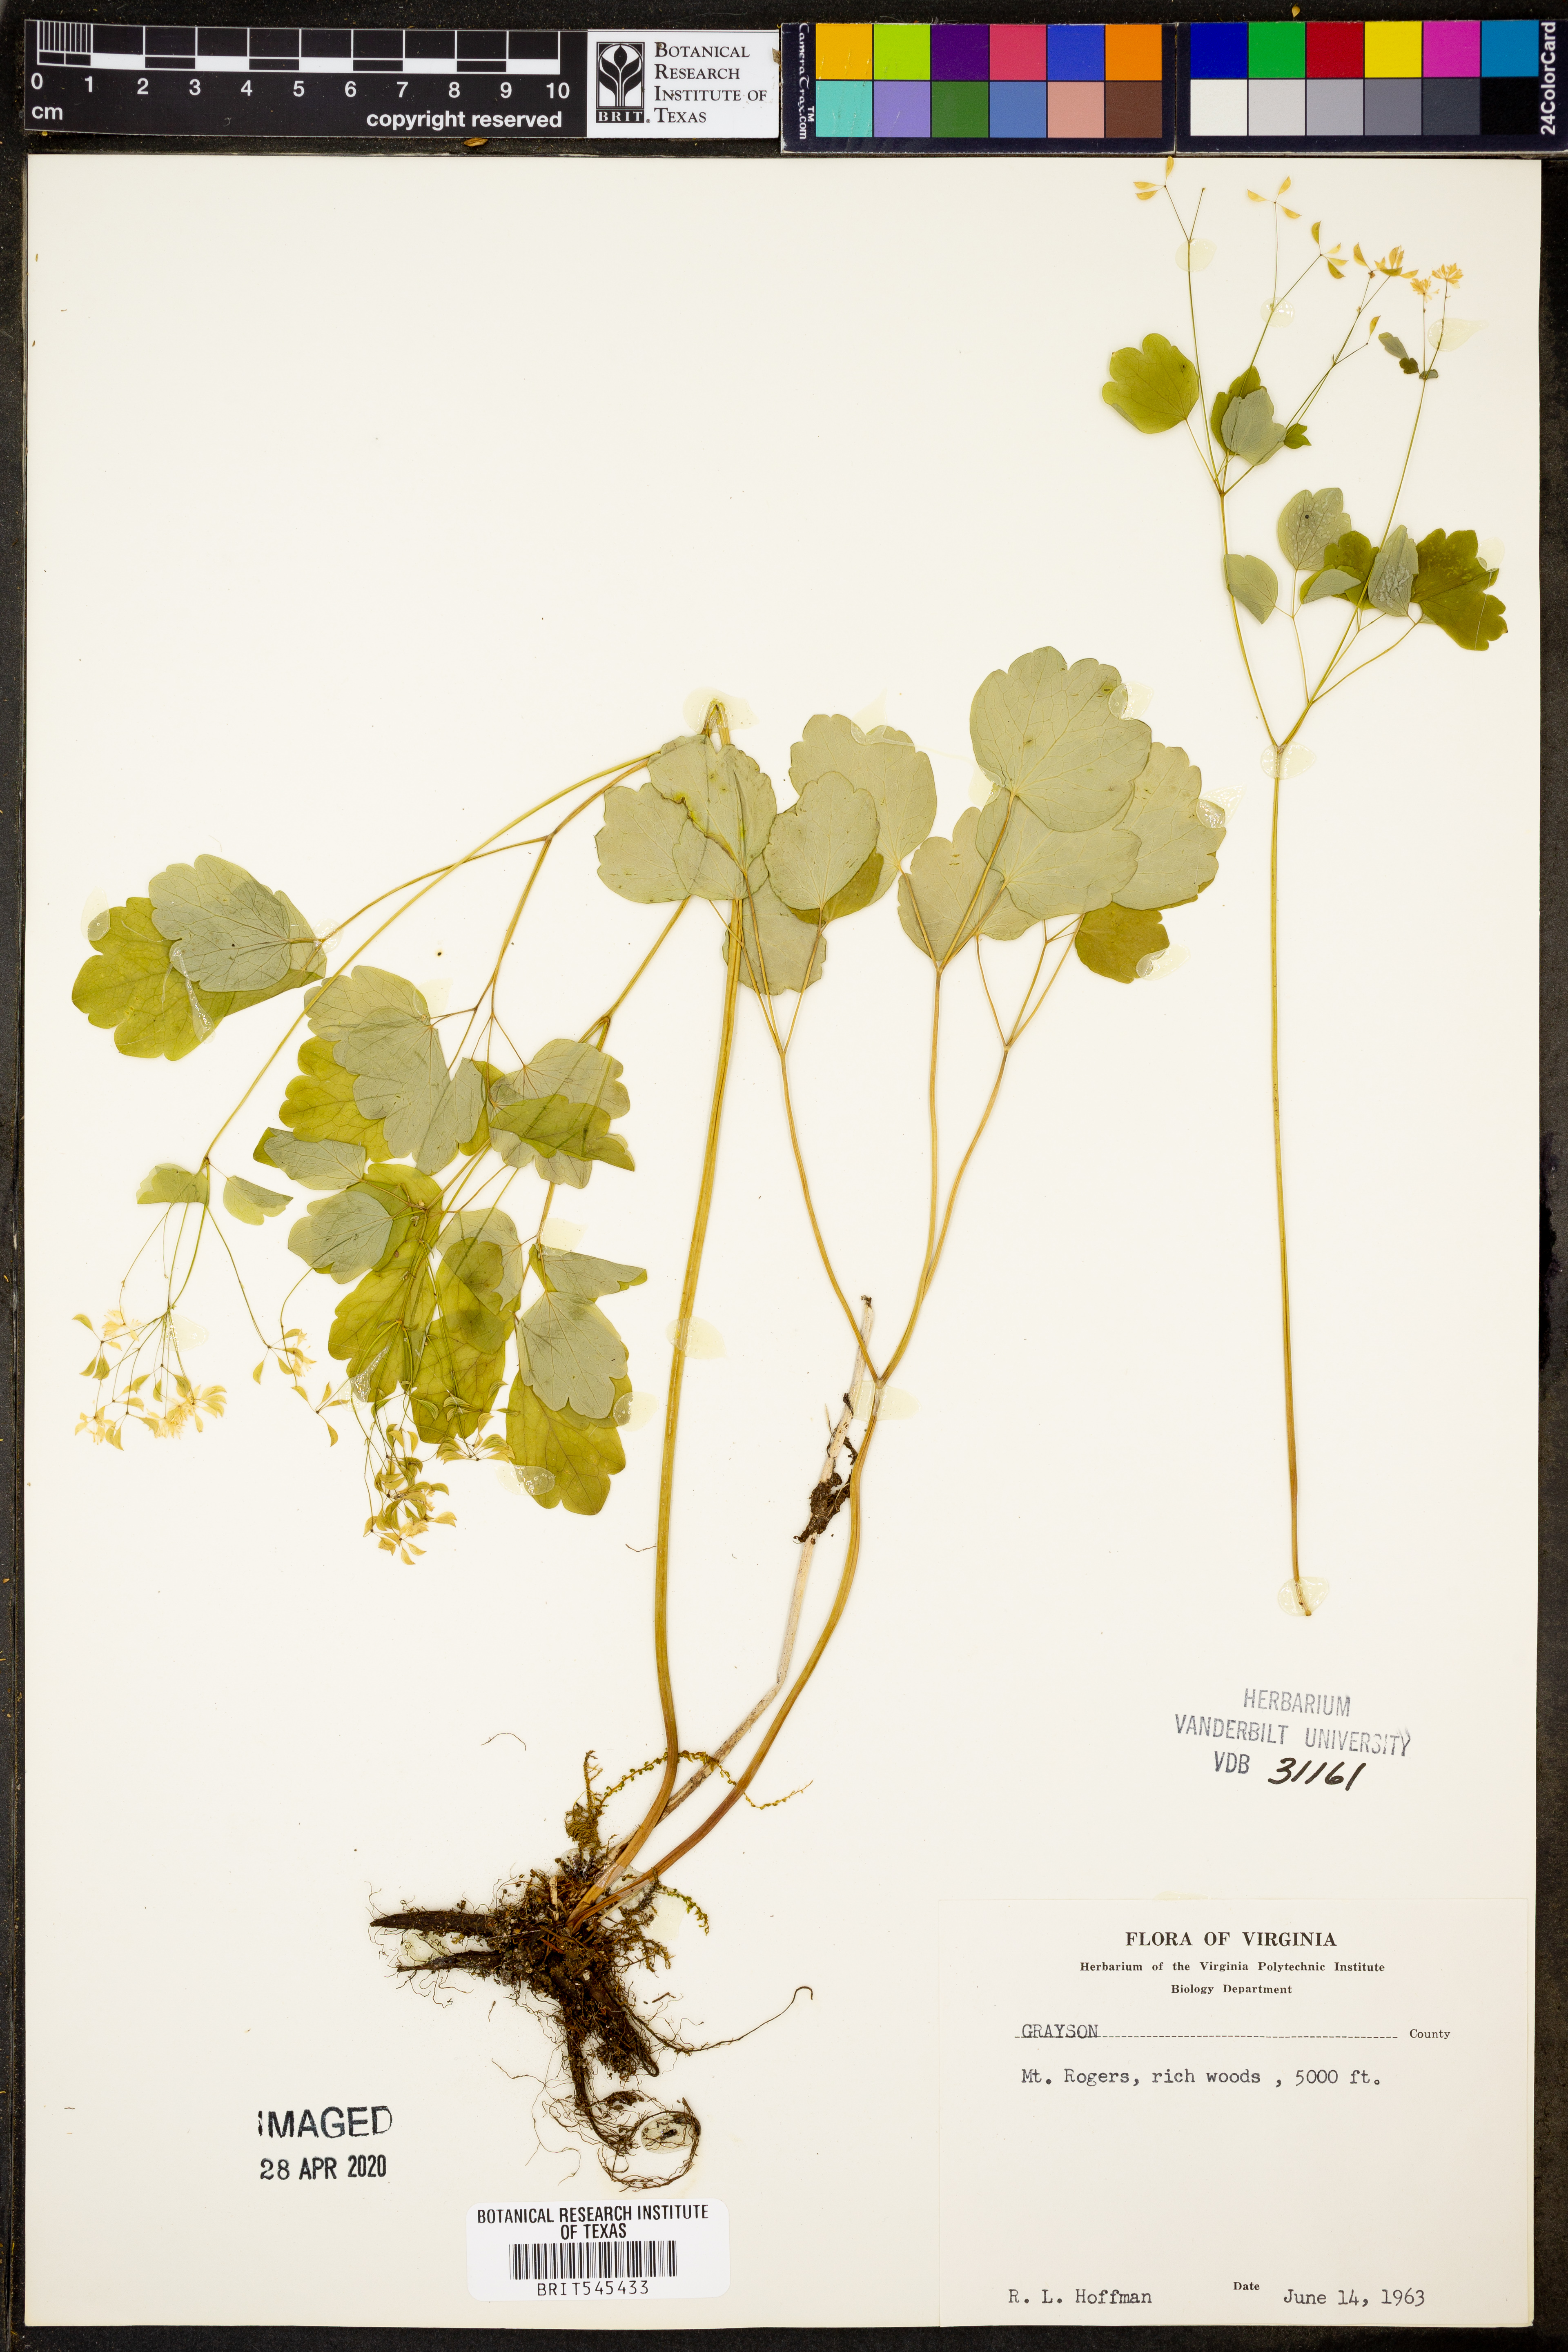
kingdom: Plantae
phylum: Tracheophyta
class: Magnoliopsida
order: Ranunculales
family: Ranunculaceae
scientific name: Ranunculaceae
